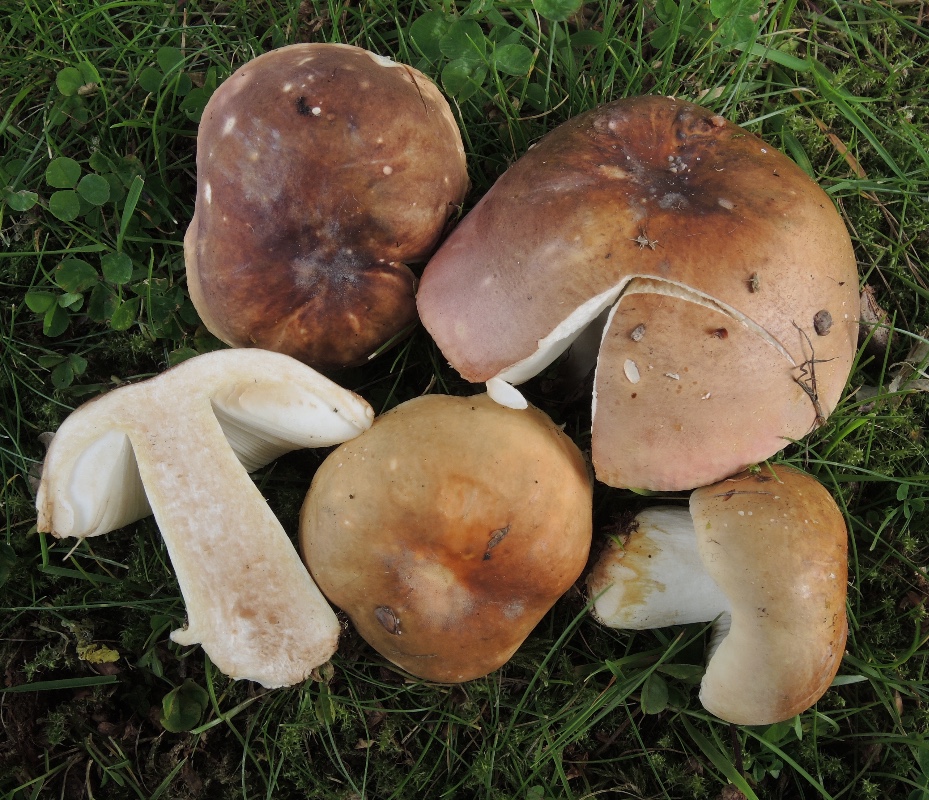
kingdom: Fungi
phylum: Basidiomycota
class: Agaricomycetes
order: Russulales
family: Russulaceae
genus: Russula
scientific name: Russula graveolens
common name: bugtet skørhat
